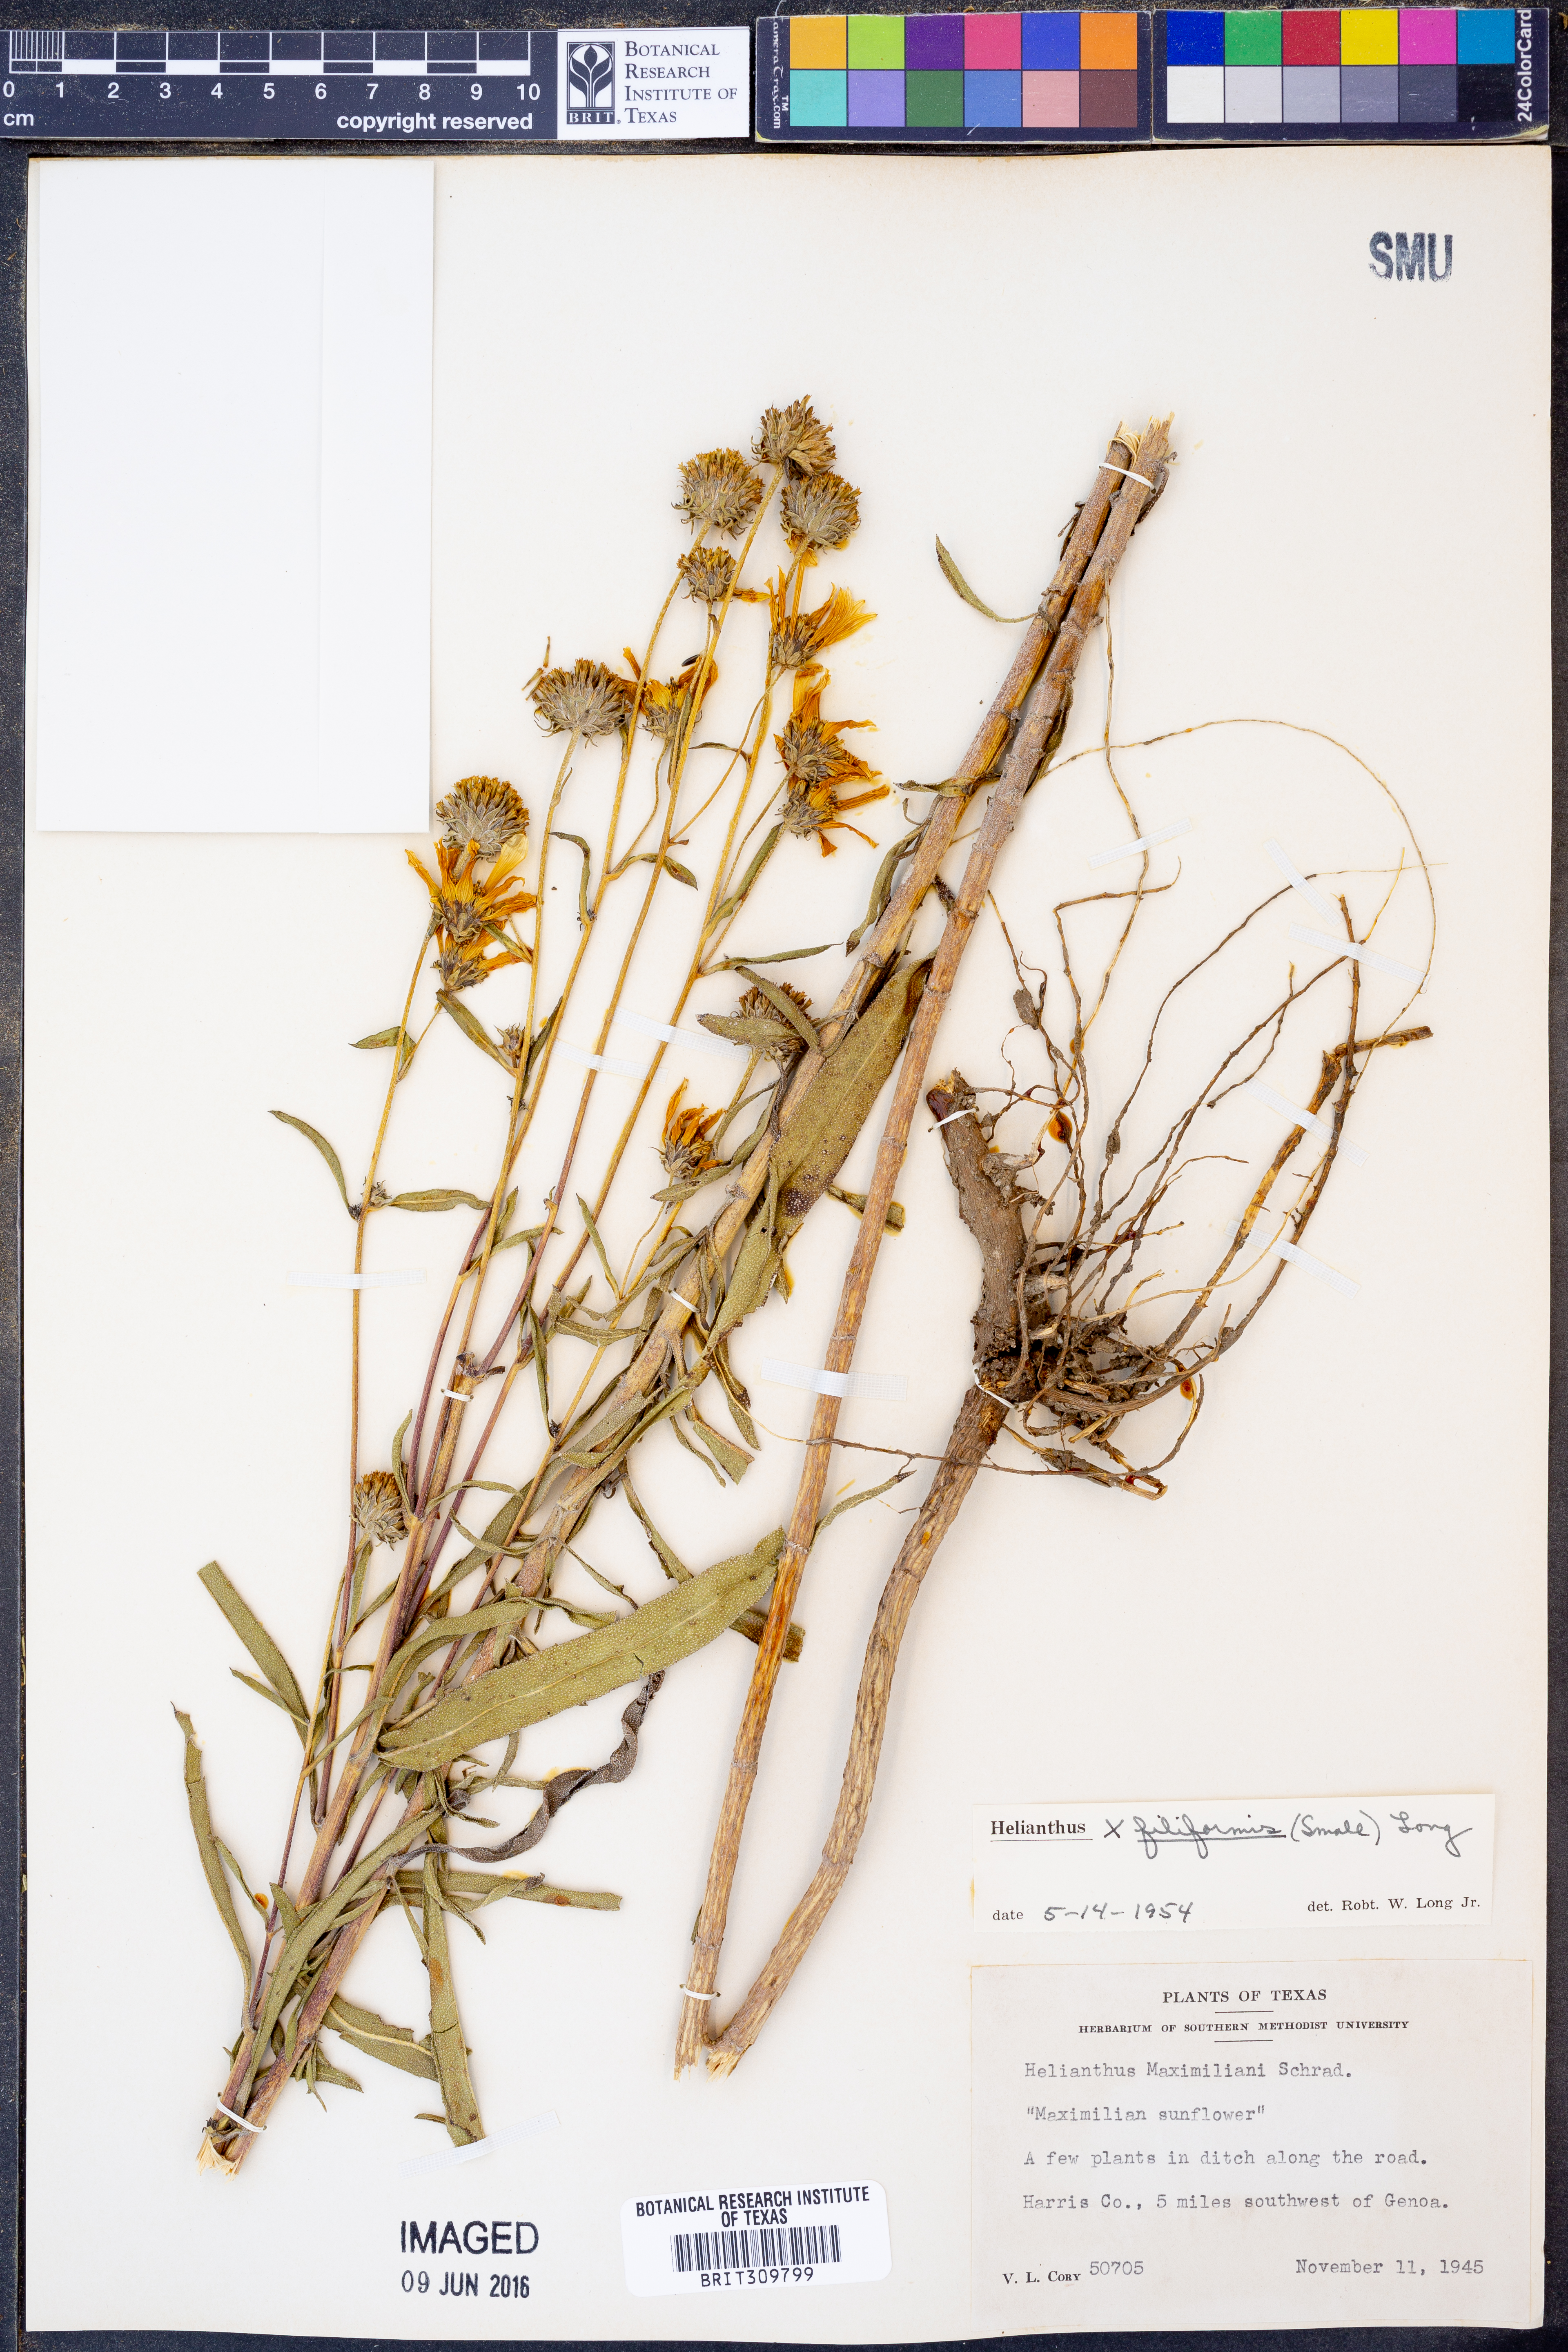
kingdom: Plantae
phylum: Tracheophyta
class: Magnoliopsida
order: Asterales
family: Asteraceae
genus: Helianthus
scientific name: Helianthus salicifolius
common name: Willowleaf sunflower
